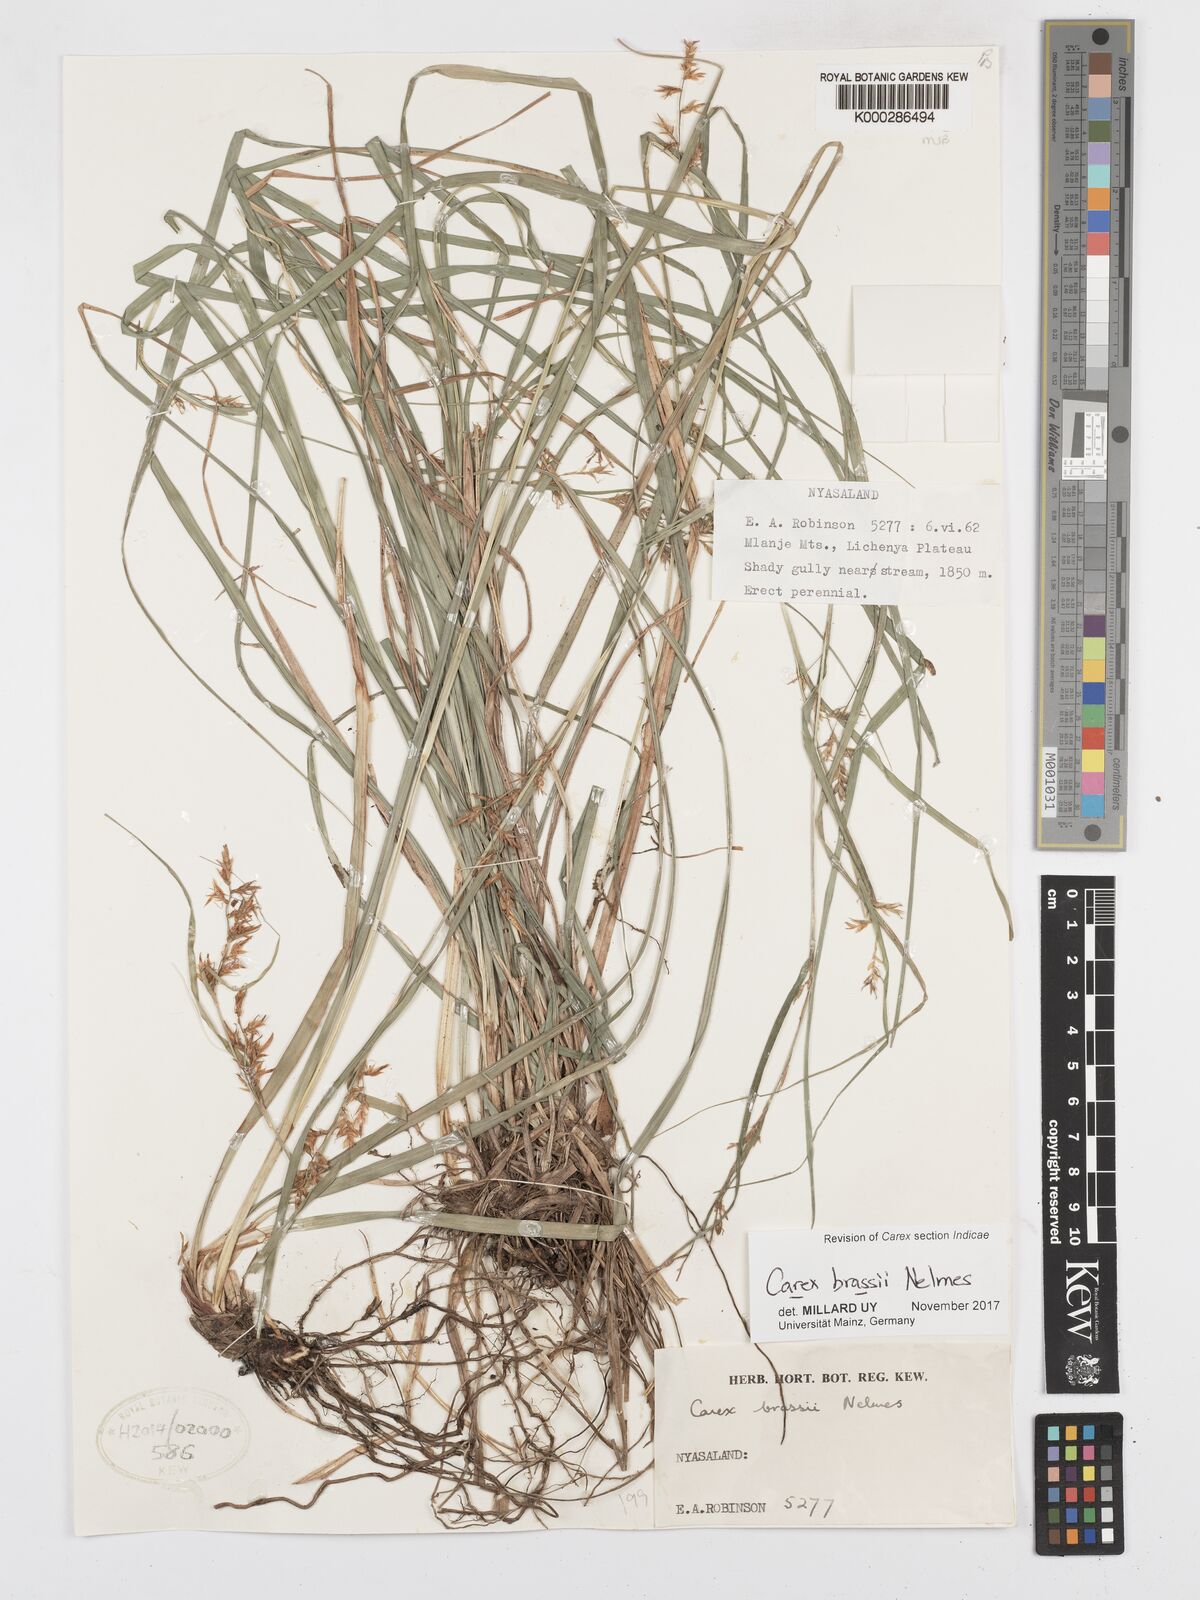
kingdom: Plantae
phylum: Tracheophyta
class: Liliopsida
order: Poales
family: Cyperaceae
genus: Carex
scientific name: Carex chlorosaccus
